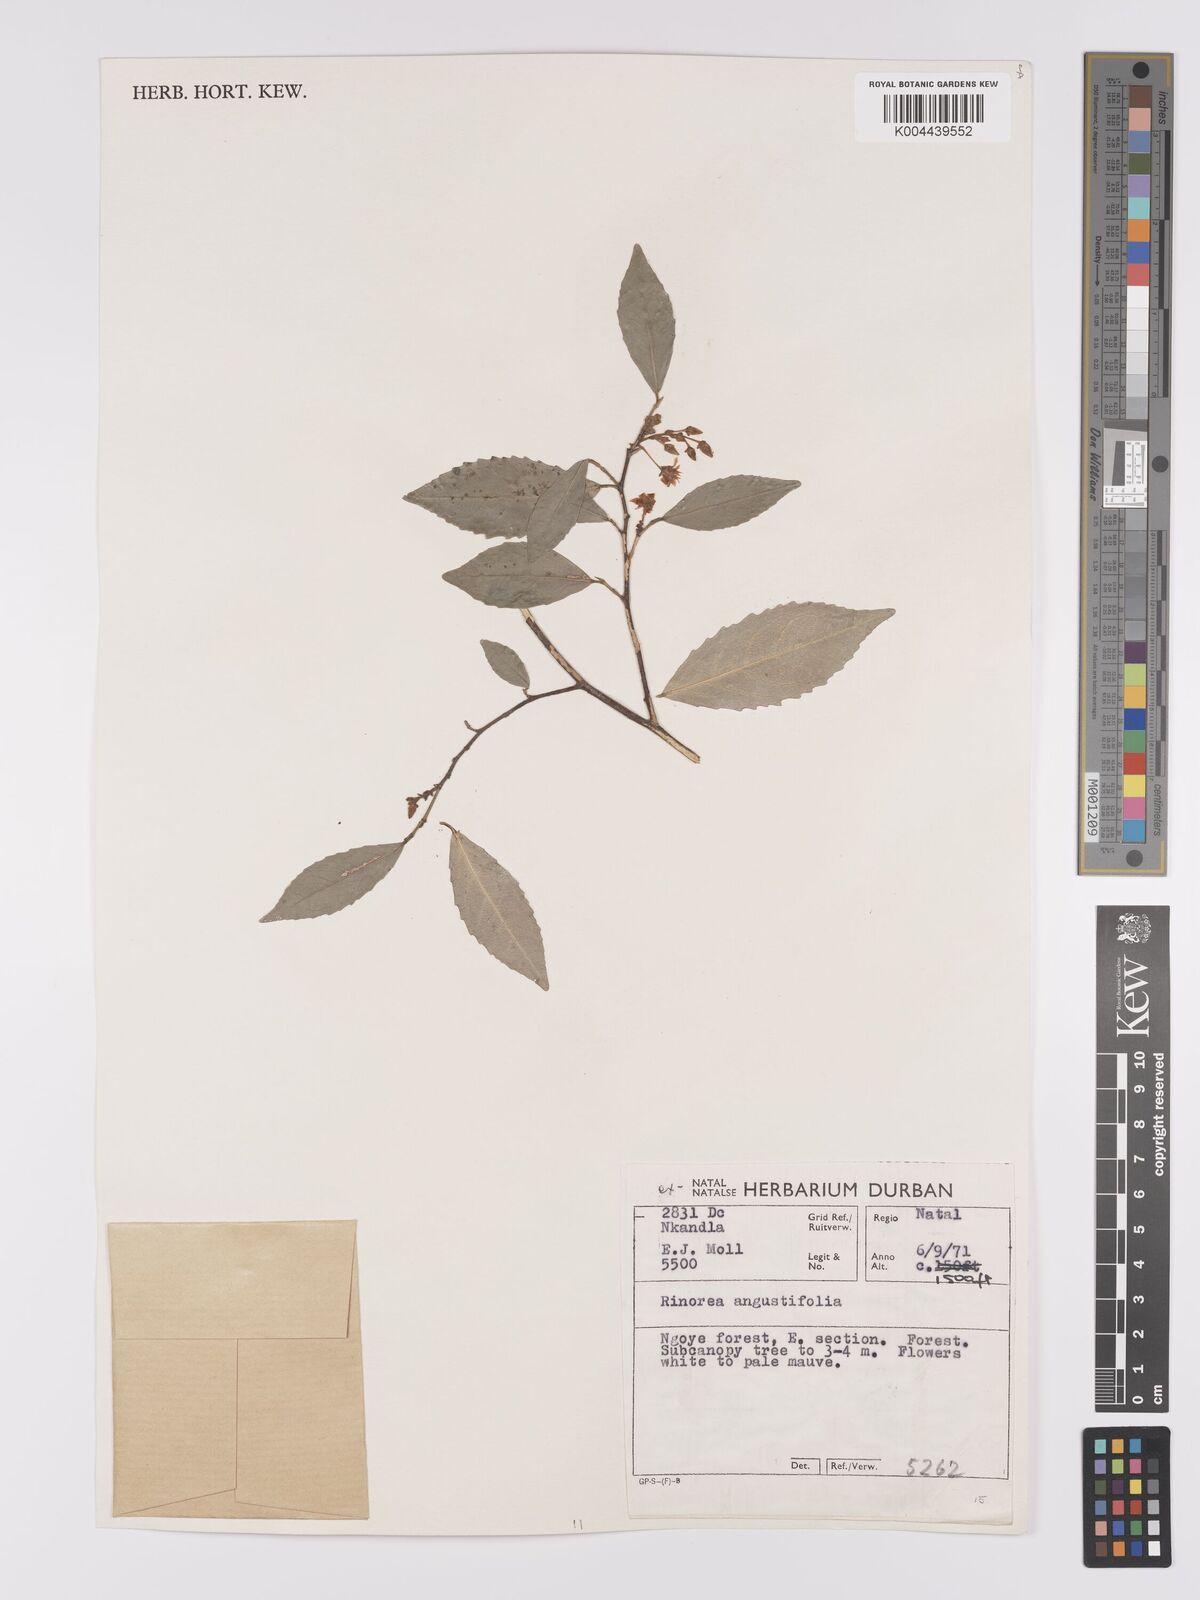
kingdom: Plantae
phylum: Tracheophyta
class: Magnoliopsida
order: Malpighiales
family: Violaceae
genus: Rinorea
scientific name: Rinorea angustifolia
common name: White violet-bush
